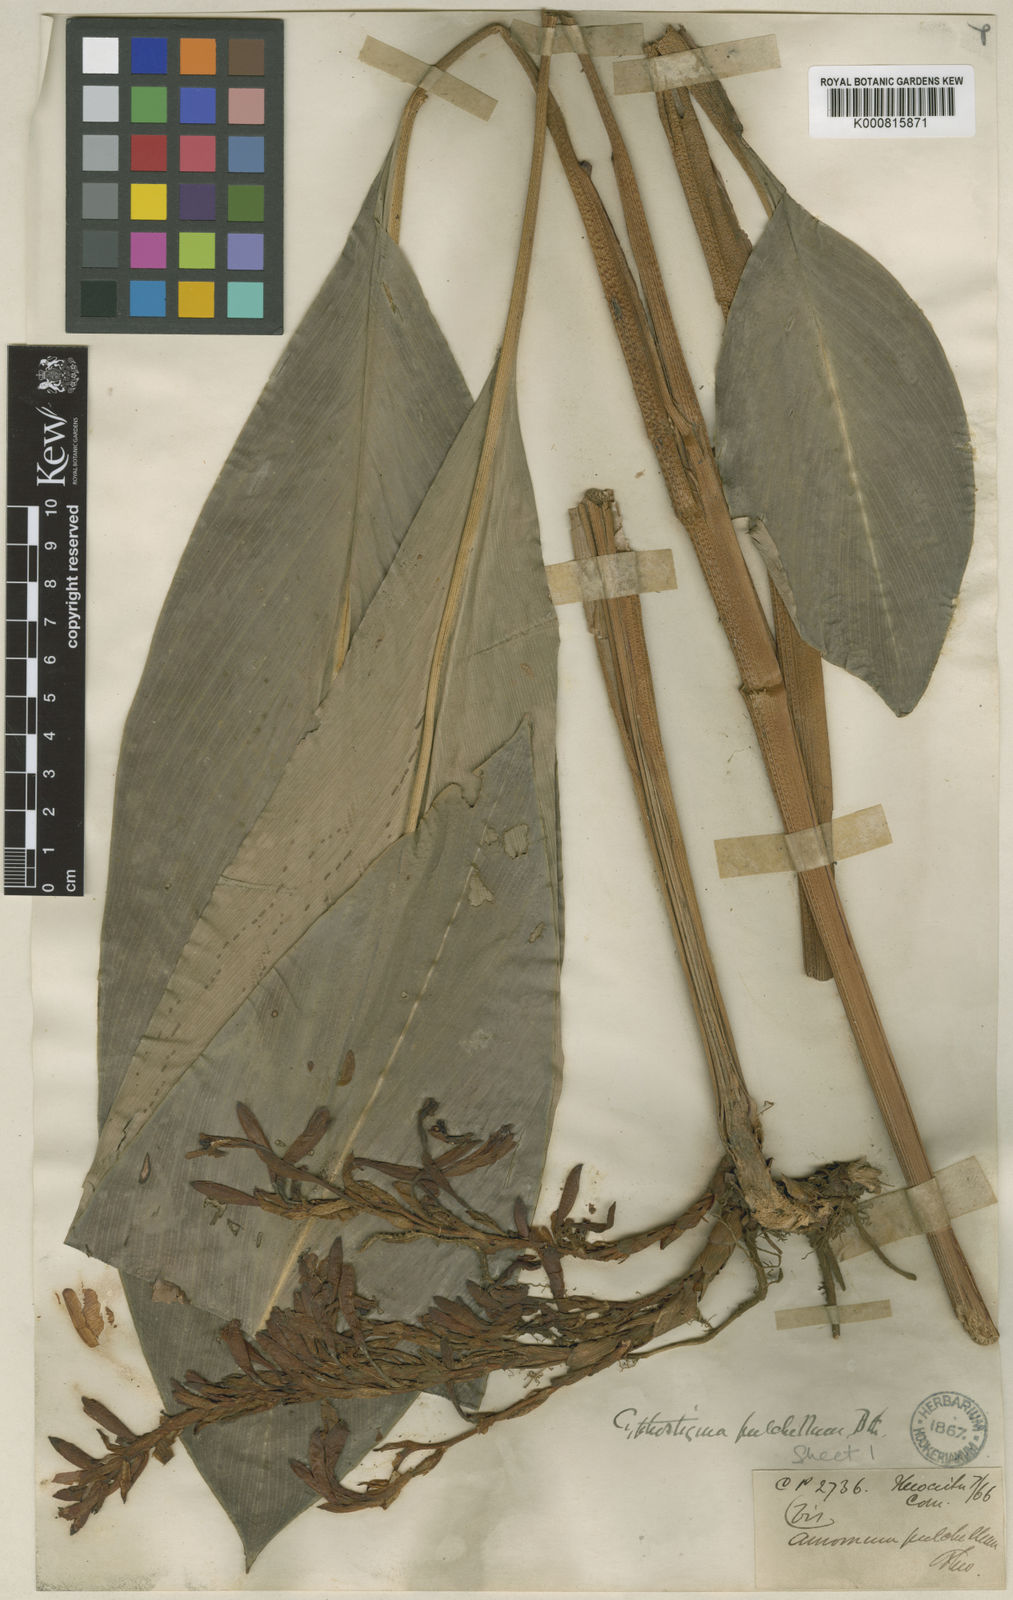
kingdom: Plantae
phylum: Tracheophyta
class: Liliopsida
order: Zingiberales
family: Zingiberaceae
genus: Cyphostigma
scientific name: Cyphostigma pulchellum
